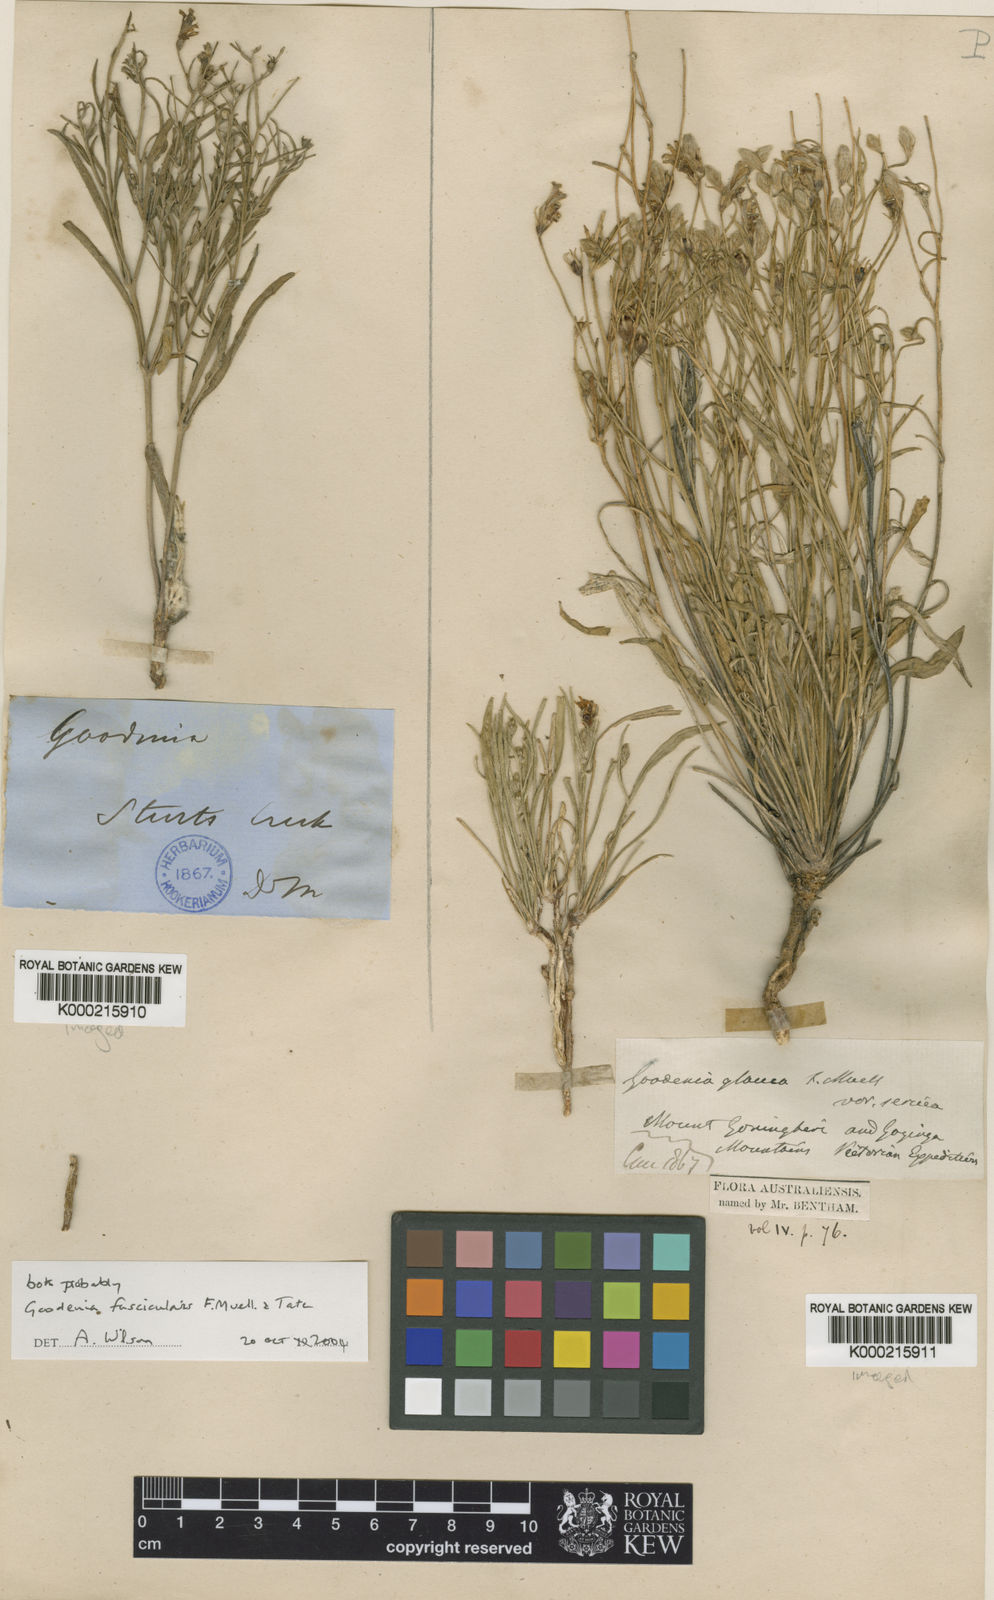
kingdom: Plantae
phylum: Tracheophyta
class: Magnoliopsida
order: Asterales
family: Goodeniaceae
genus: Goodenia
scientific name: Goodenia fascicularis
